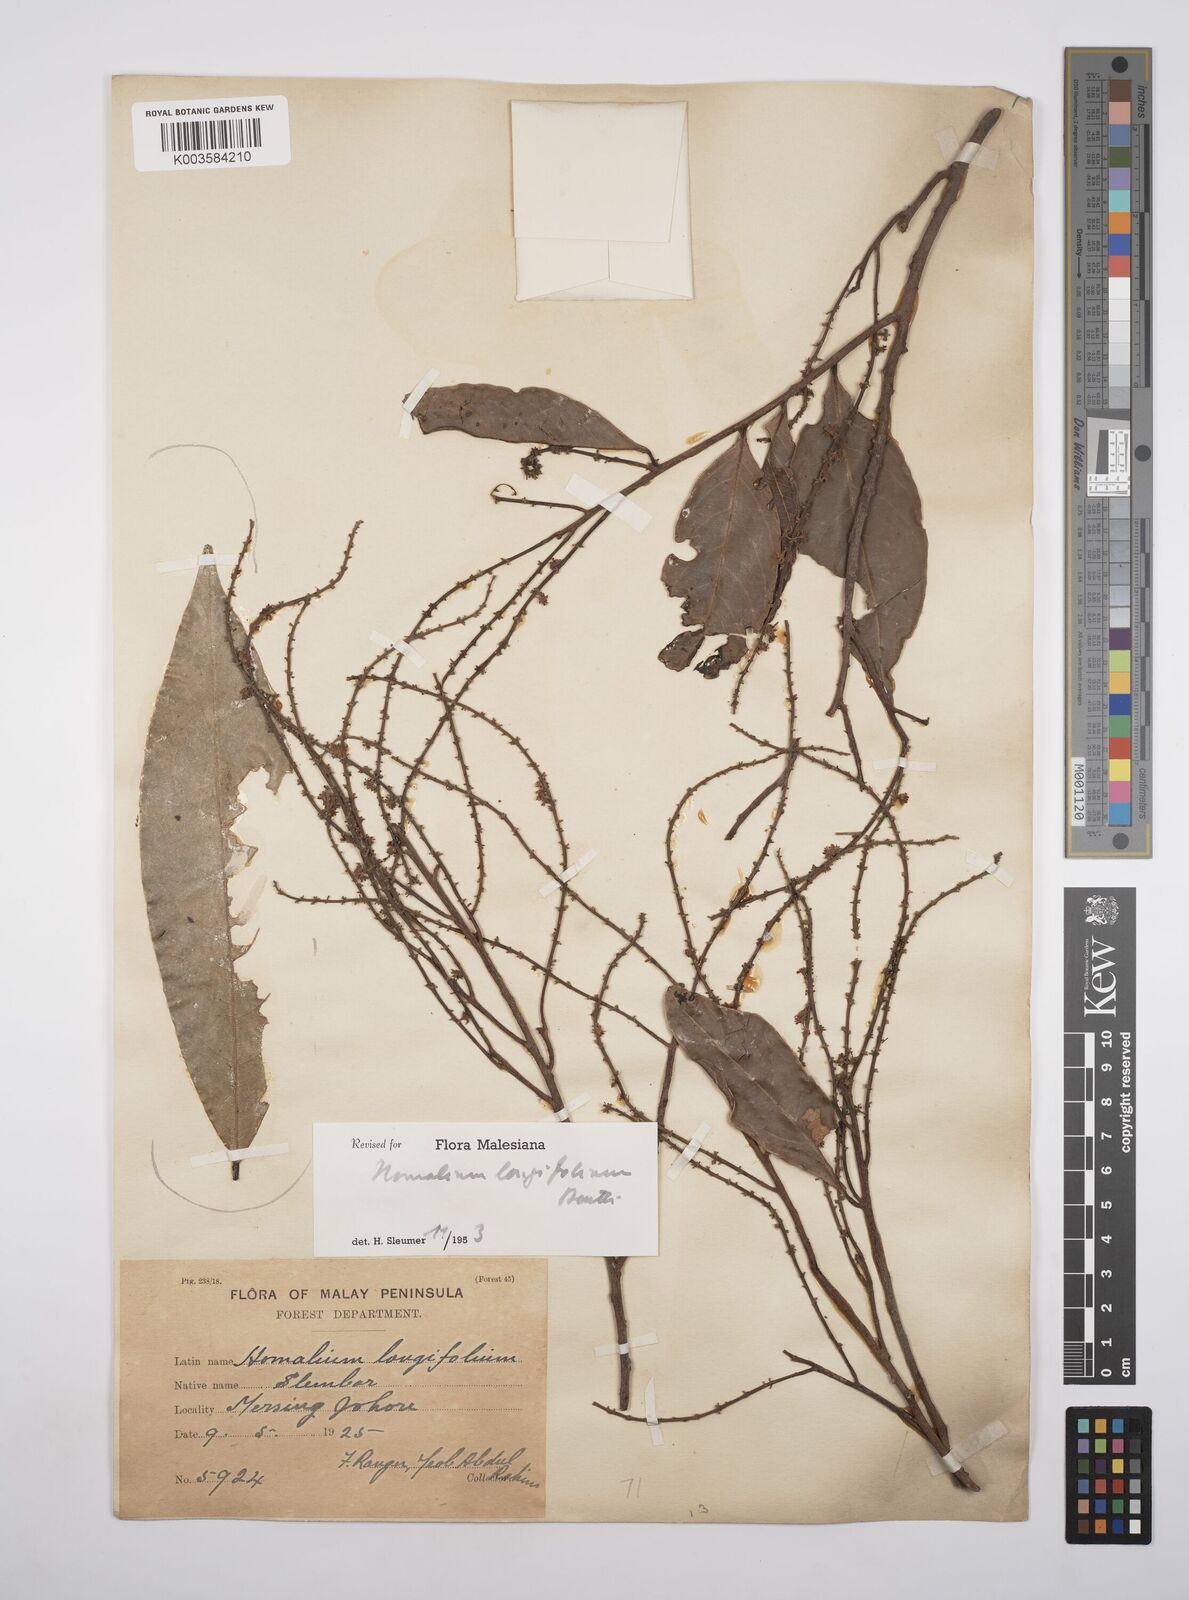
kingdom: Plantae
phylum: Tracheophyta
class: Magnoliopsida
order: Malpighiales
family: Salicaceae
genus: Homalium
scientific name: Homalium longifolium
